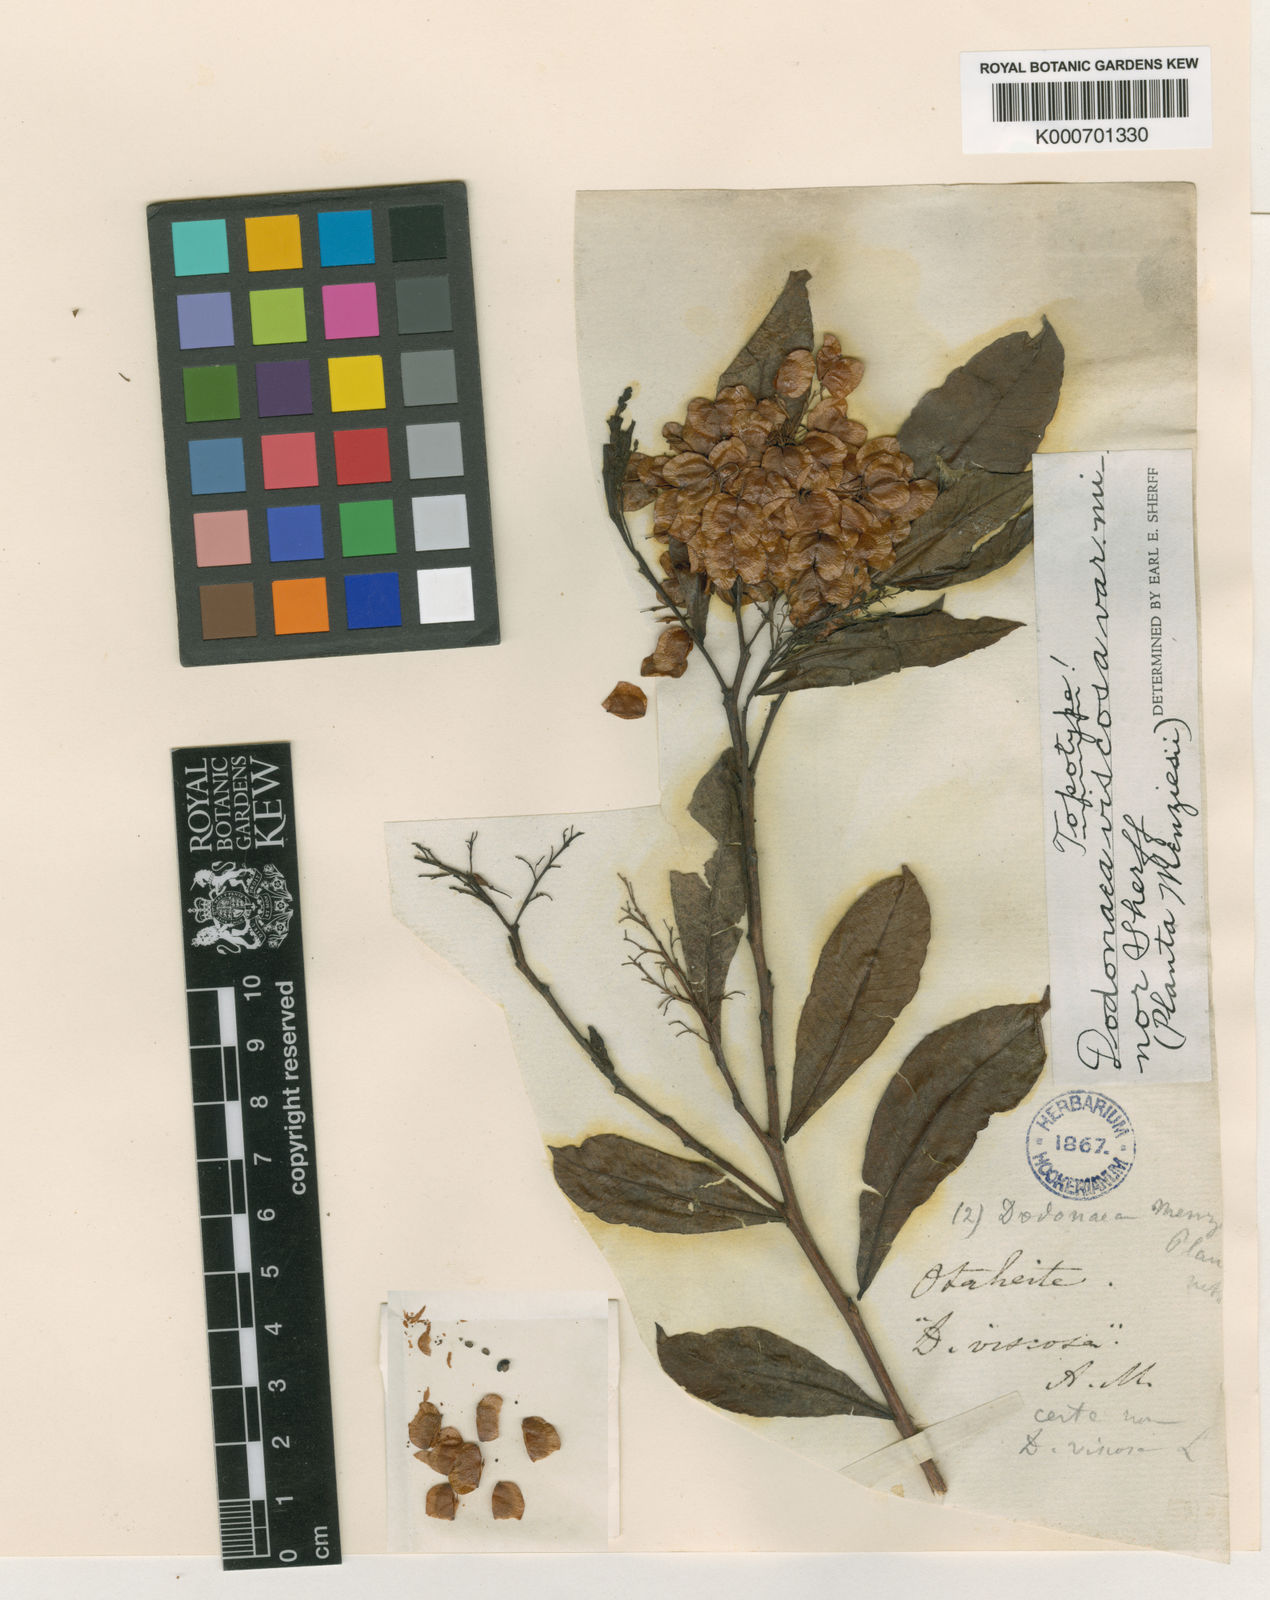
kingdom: Plantae
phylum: Tracheophyta
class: Magnoliopsida
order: Sapindales
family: Sapindaceae
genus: Dodonaea
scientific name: Dodonaea viscosa
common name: Hopbush
